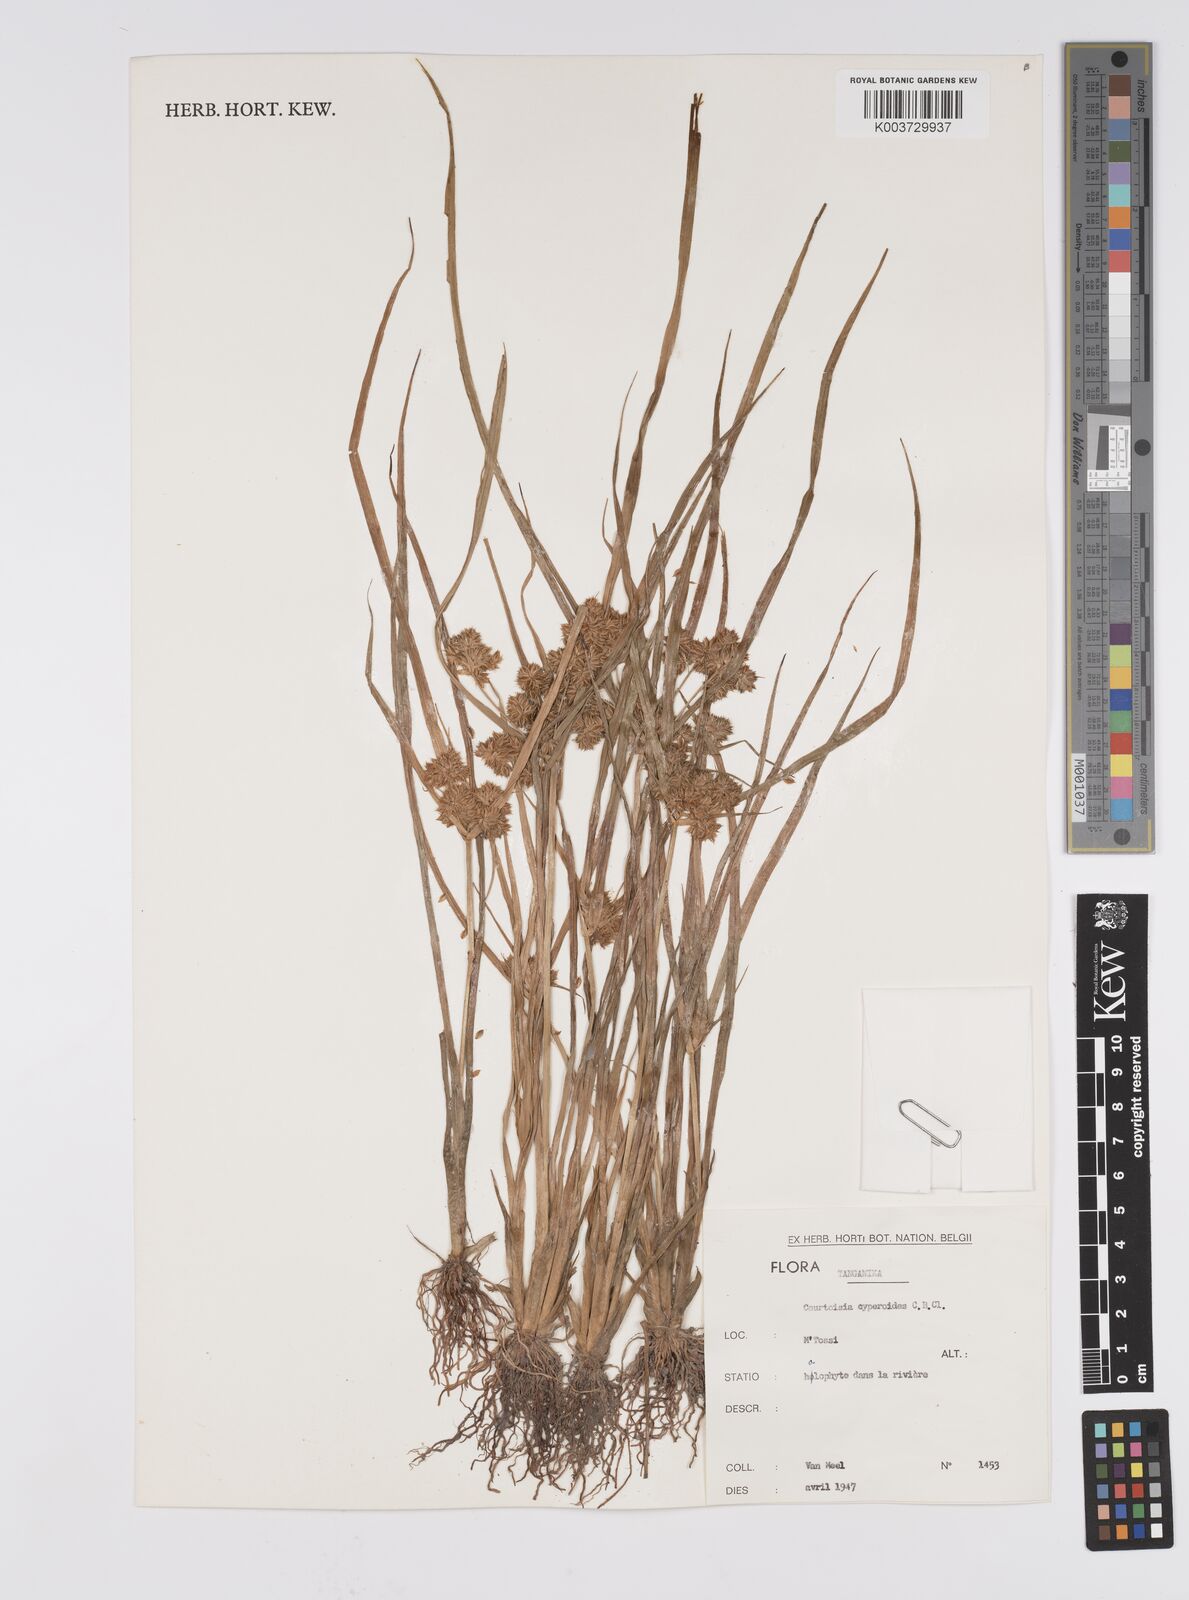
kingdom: Plantae
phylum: Tracheophyta
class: Liliopsida
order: Poales
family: Cyperaceae
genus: Cyperus
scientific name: Cyperus cyperoides
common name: Pacific island flat sedge
